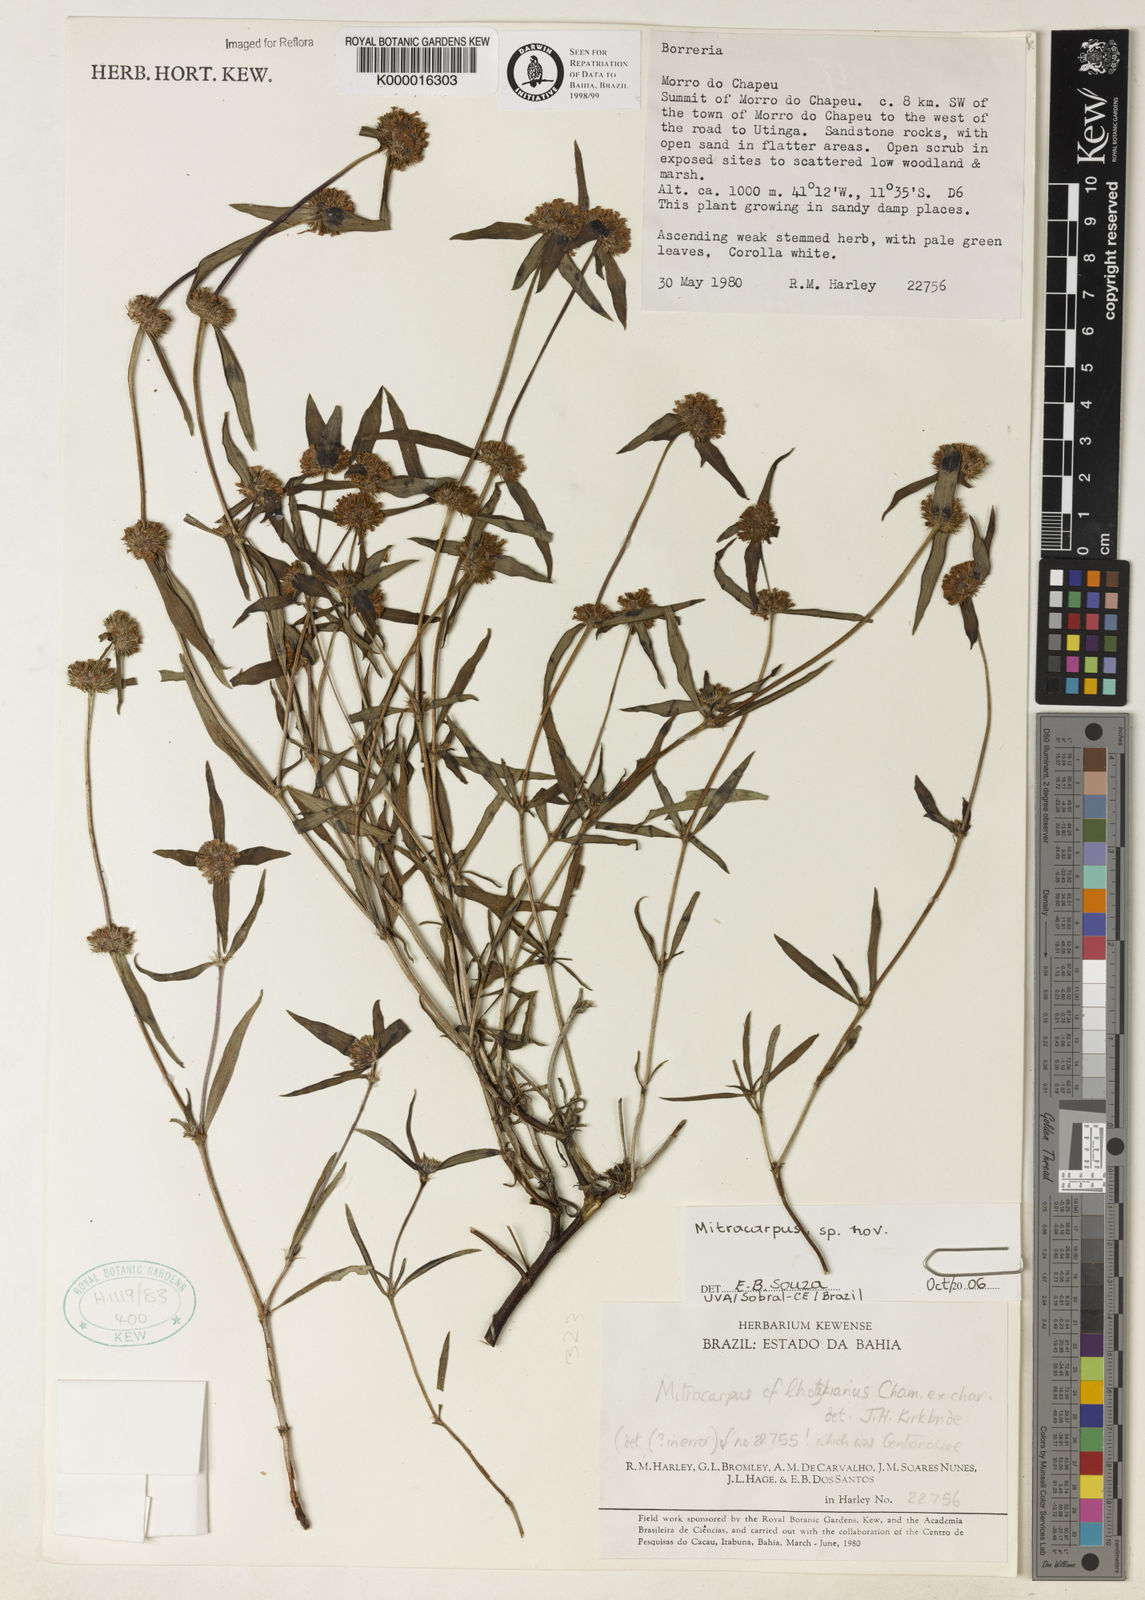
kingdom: Plantae
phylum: Tracheophyta
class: Magnoliopsida
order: Gentianales
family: Rubiaceae
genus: Mitracarpus
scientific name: Mitracarpus lhotzkyanus
